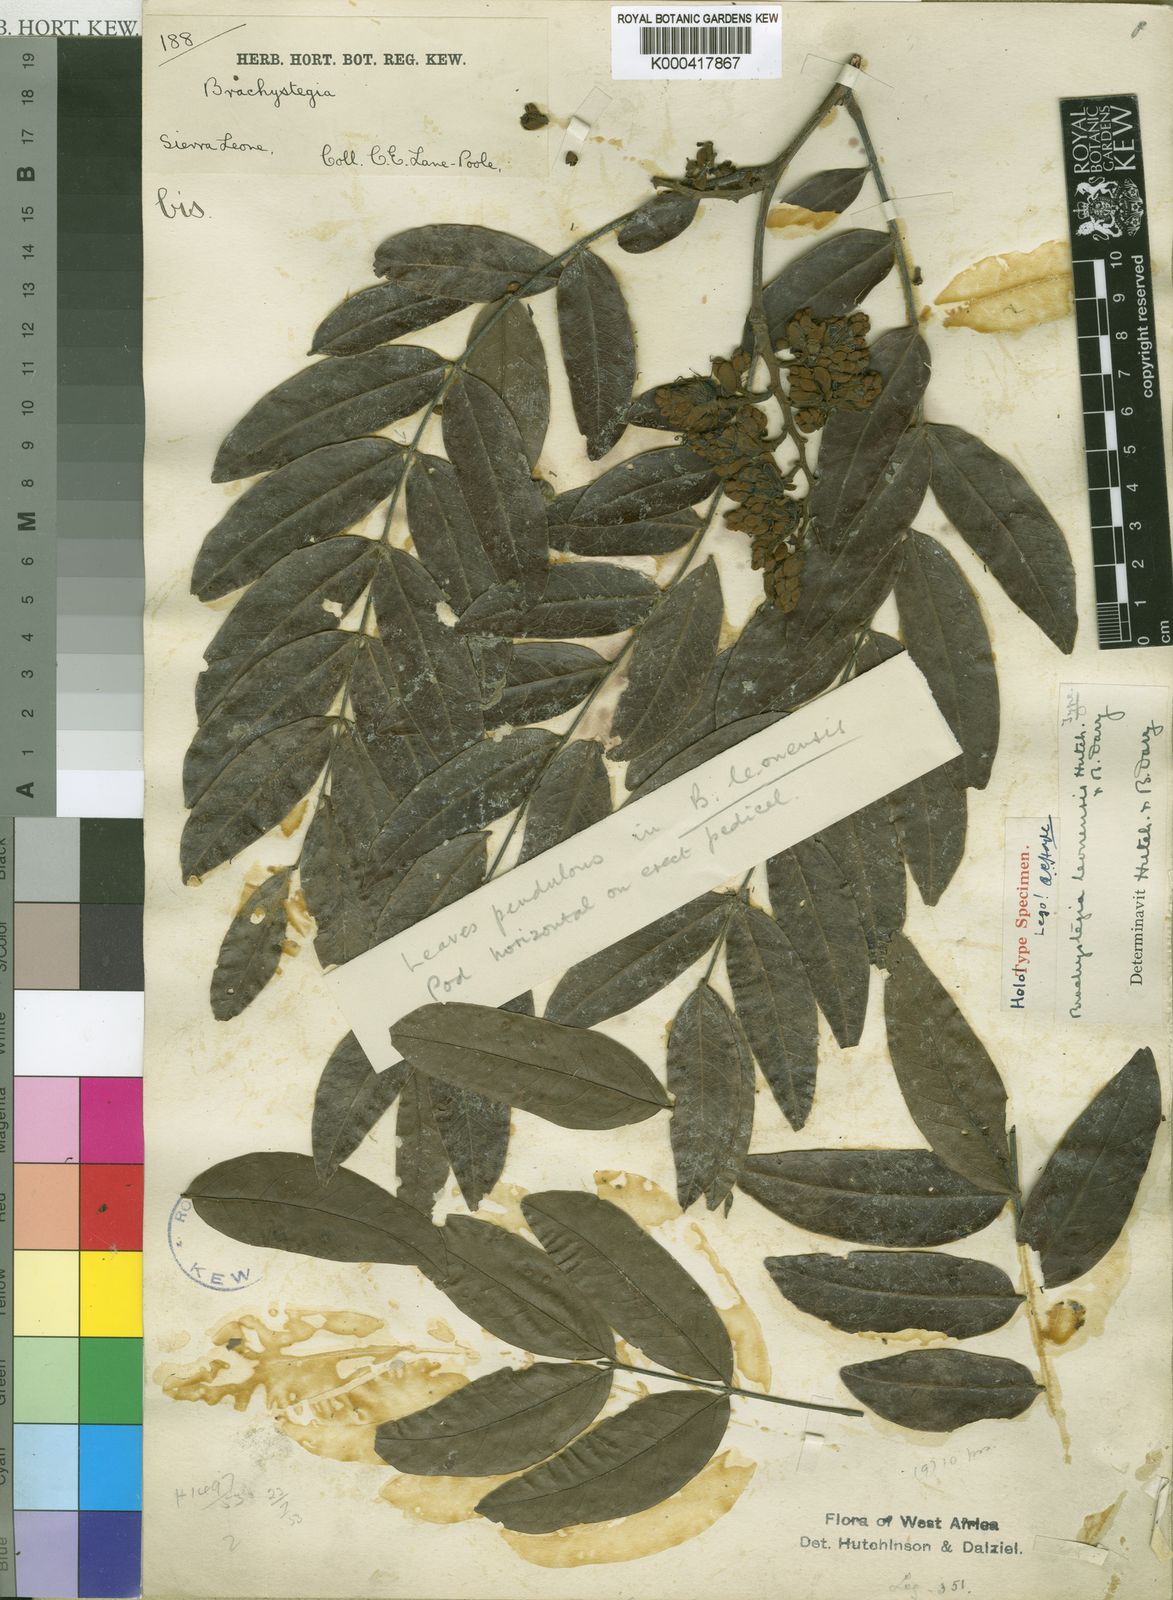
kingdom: Plantae
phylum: Tracheophyta
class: Magnoliopsida
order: Fabales
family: Fabaceae
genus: Brachystegia
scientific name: Brachystegia leonensis
